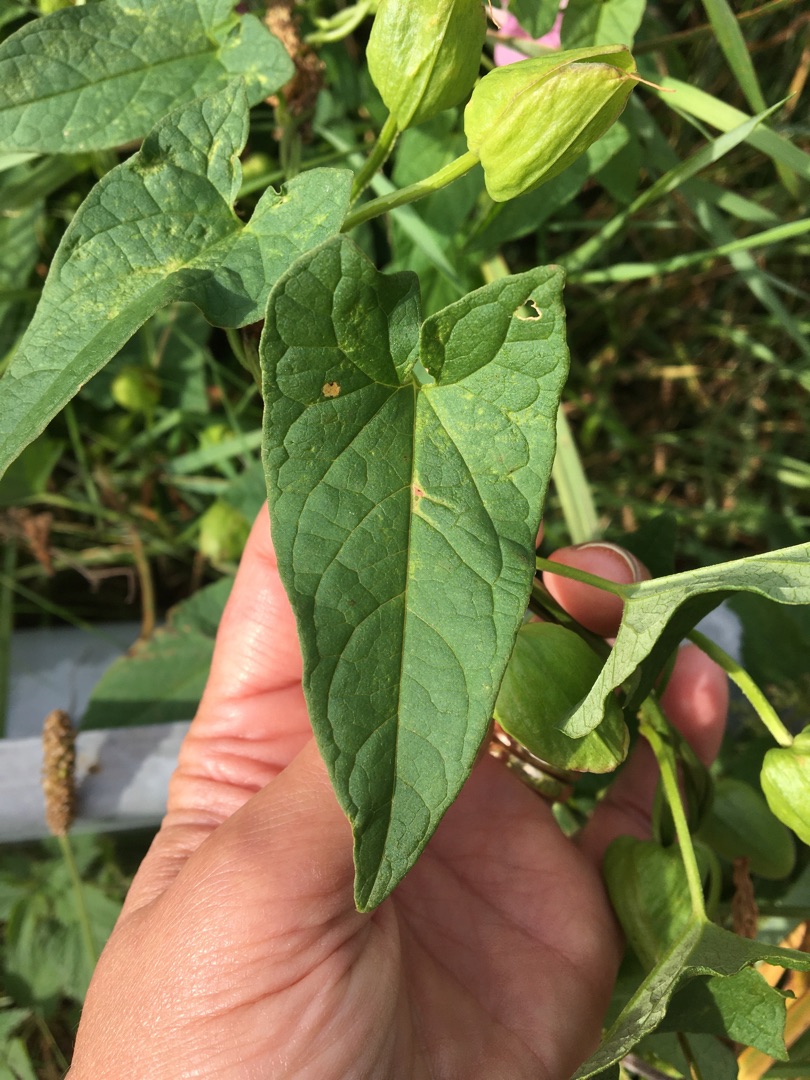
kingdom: Plantae
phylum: Tracheophyta
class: Magnoliopsida
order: Solanales
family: Convolvulaceae
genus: Calystegia
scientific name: Calystegia pulchra
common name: Have-snerle
